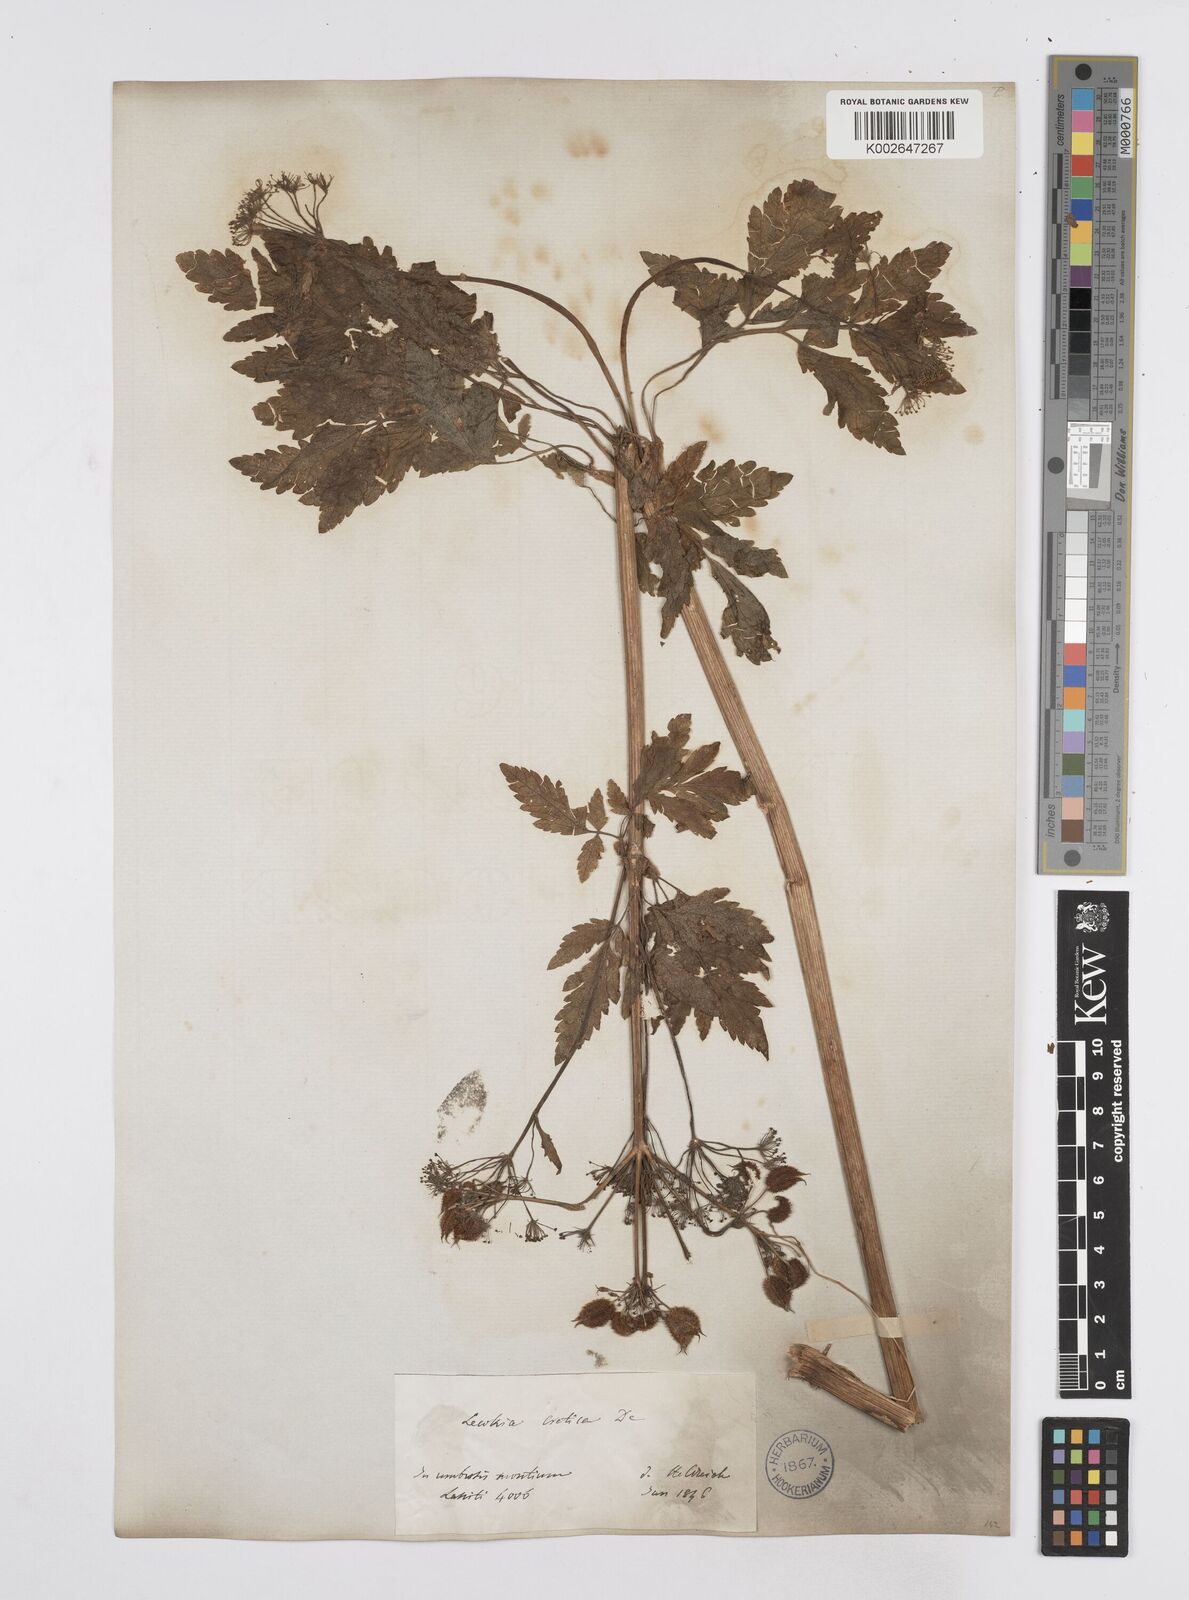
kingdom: Plantae
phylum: Tracheophyta
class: Magnoliopsida
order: Apiales
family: Apiaceae
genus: Lecokia
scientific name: Lecokia
